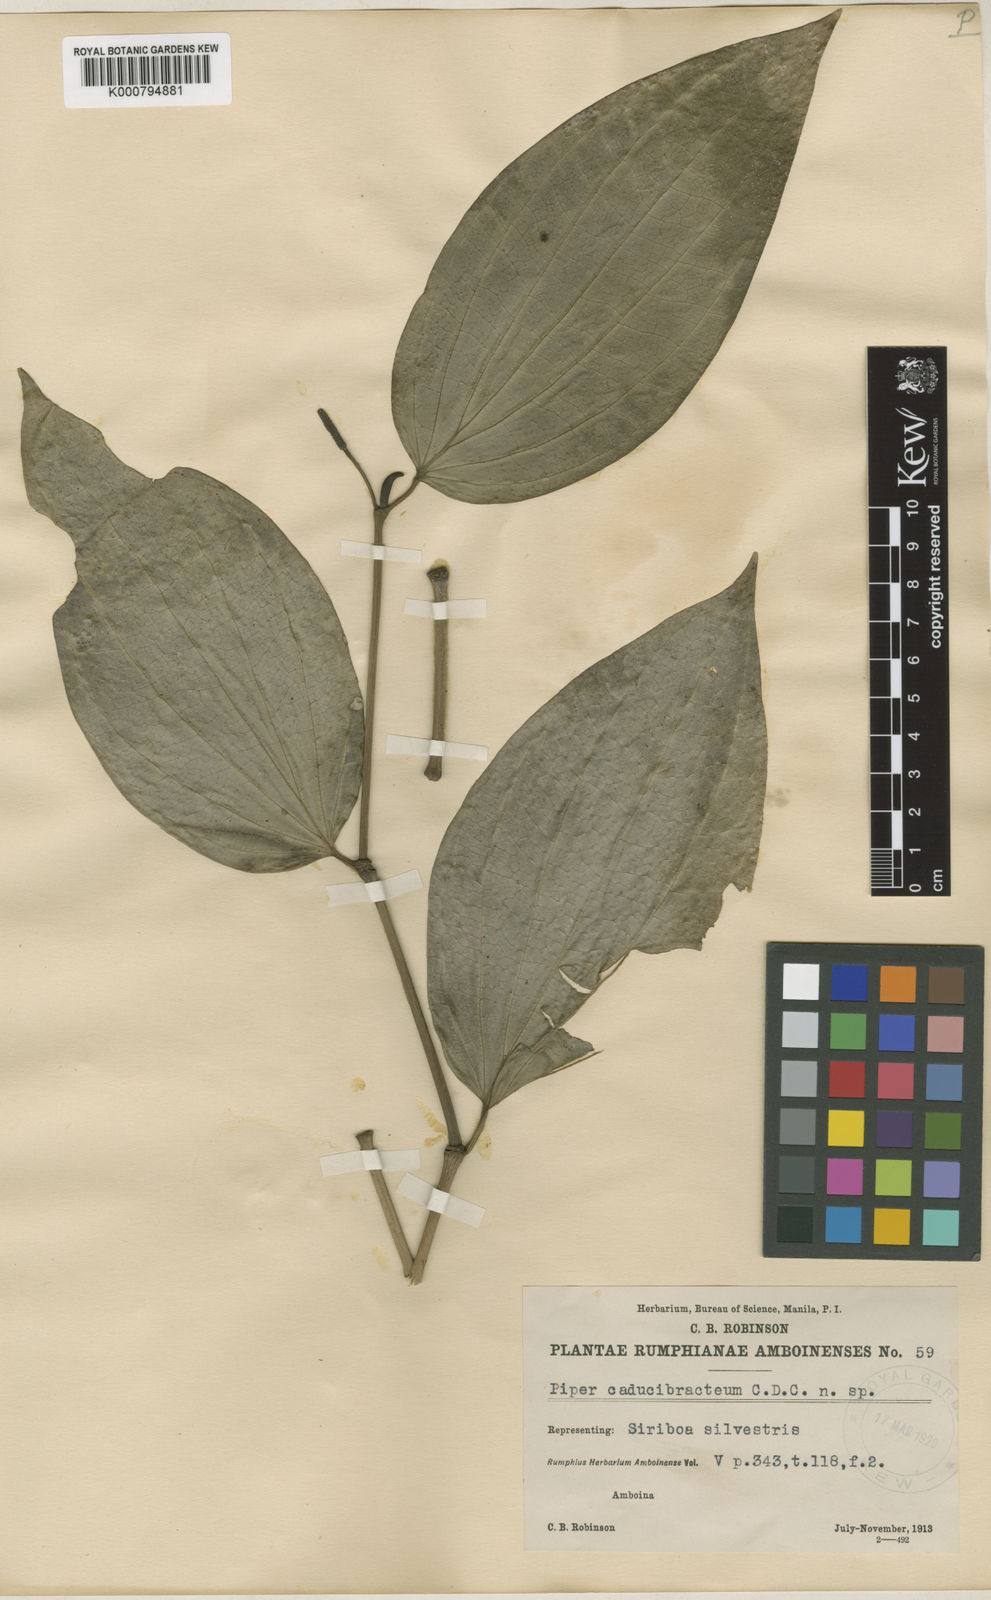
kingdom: Plantae
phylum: Tracheophyta
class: Magnoliopsida
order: Piperales
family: Piperaceae
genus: Piper
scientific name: Piper caducibracteum
